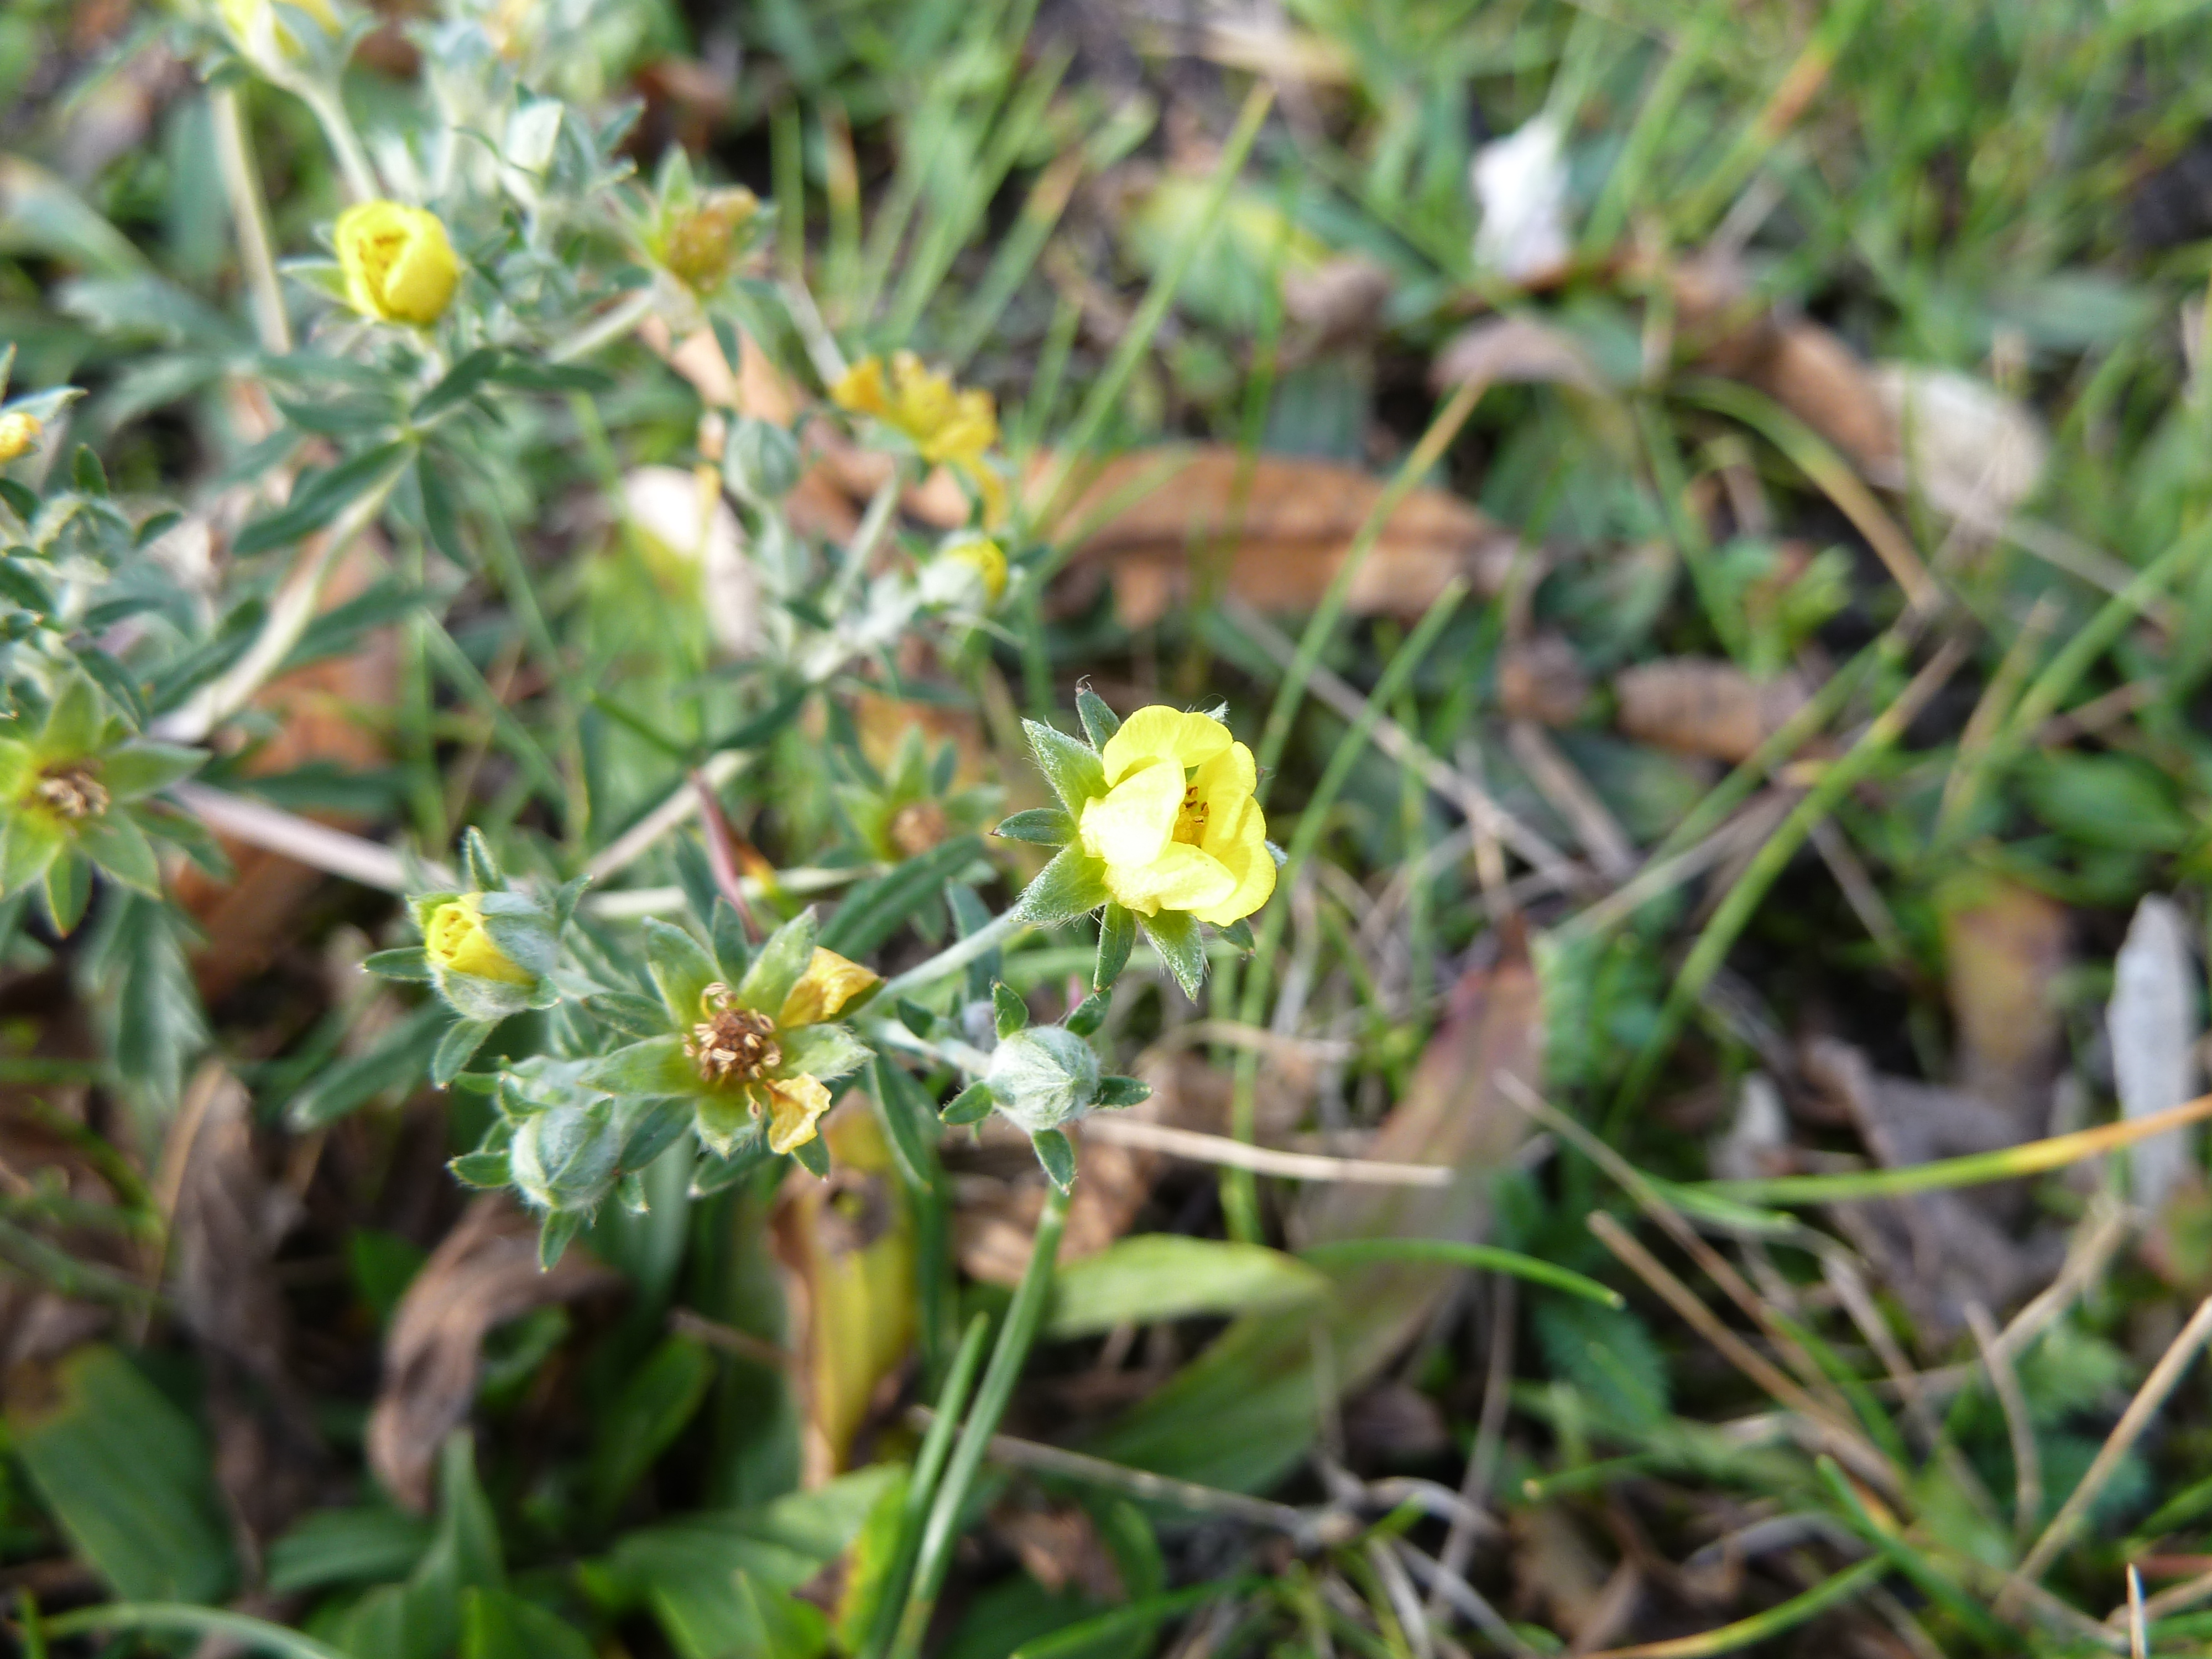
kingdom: Plantae
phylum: Tracheophyta
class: Magnoliopsida
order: Rosales
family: Rosaceae
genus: Potentilla
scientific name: Potentilla argentea
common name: Hoary cinquefoil
